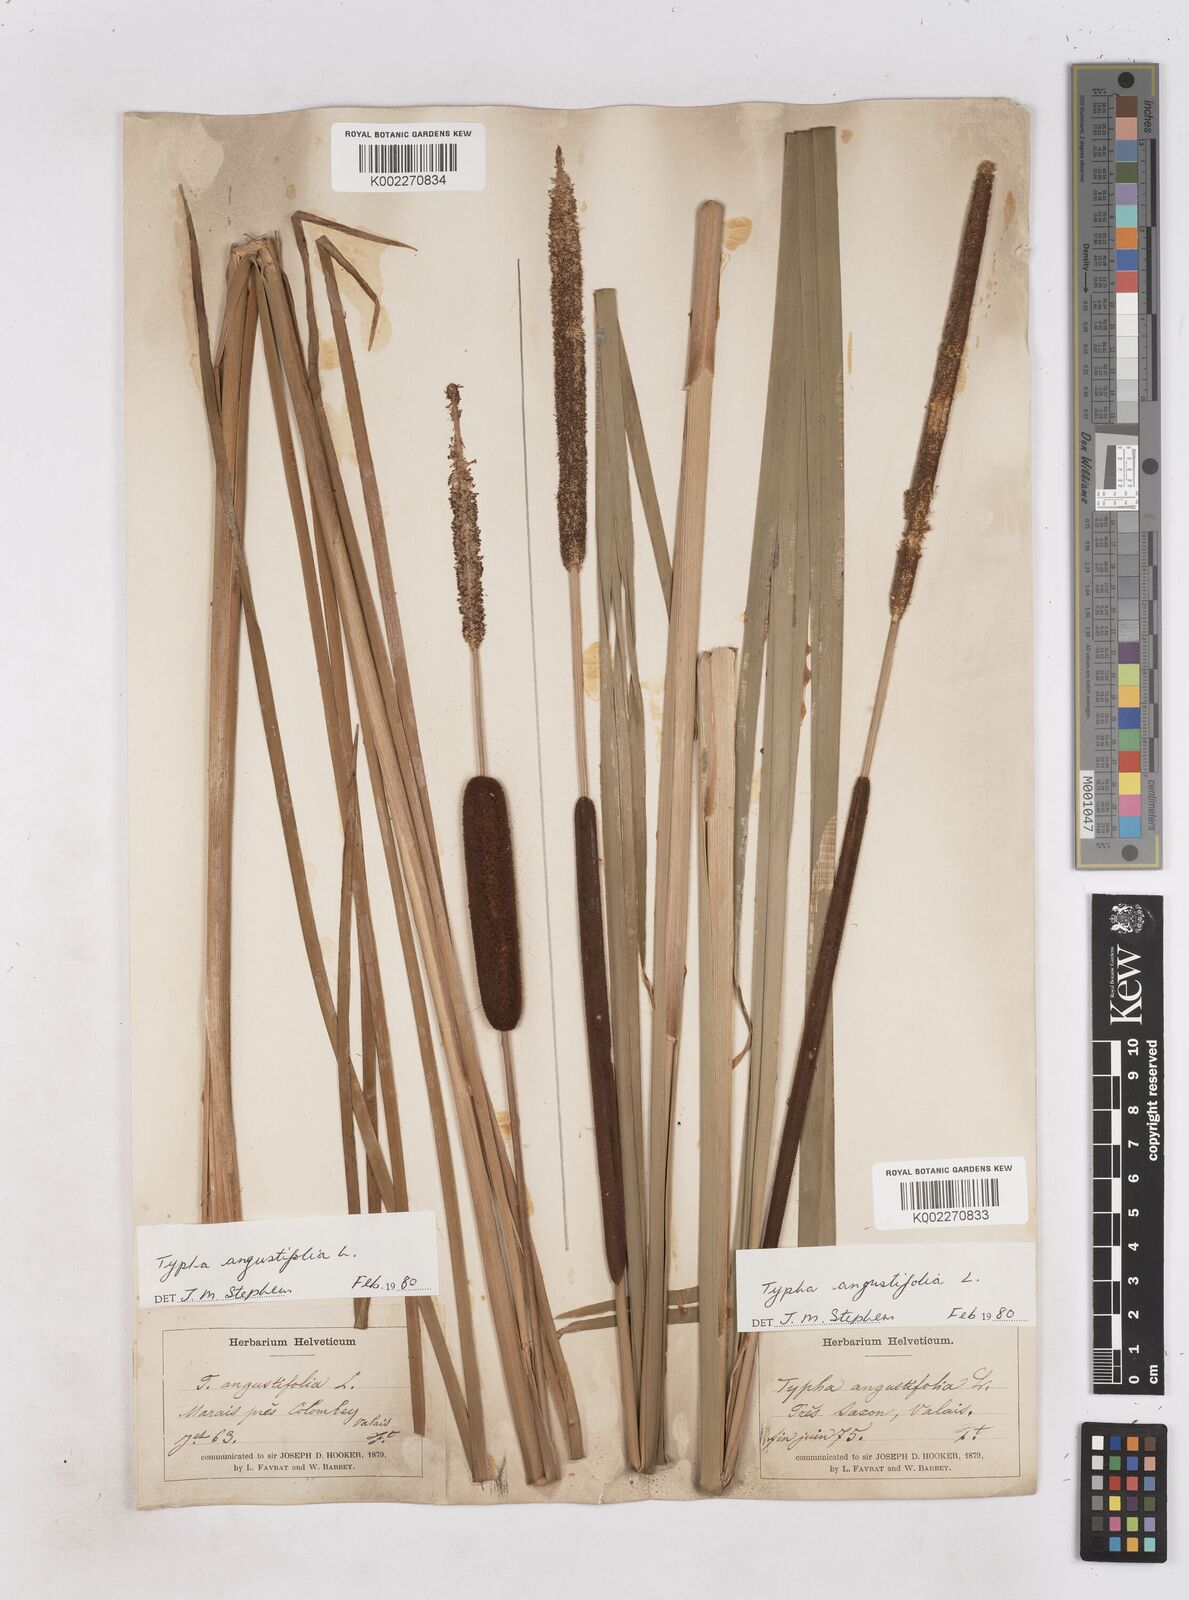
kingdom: Plantae
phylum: Tracheophyta
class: Liliopsida
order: Poales
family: Typhaceae
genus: Typha
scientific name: Typha angustifolia
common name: Lesser bulrush
